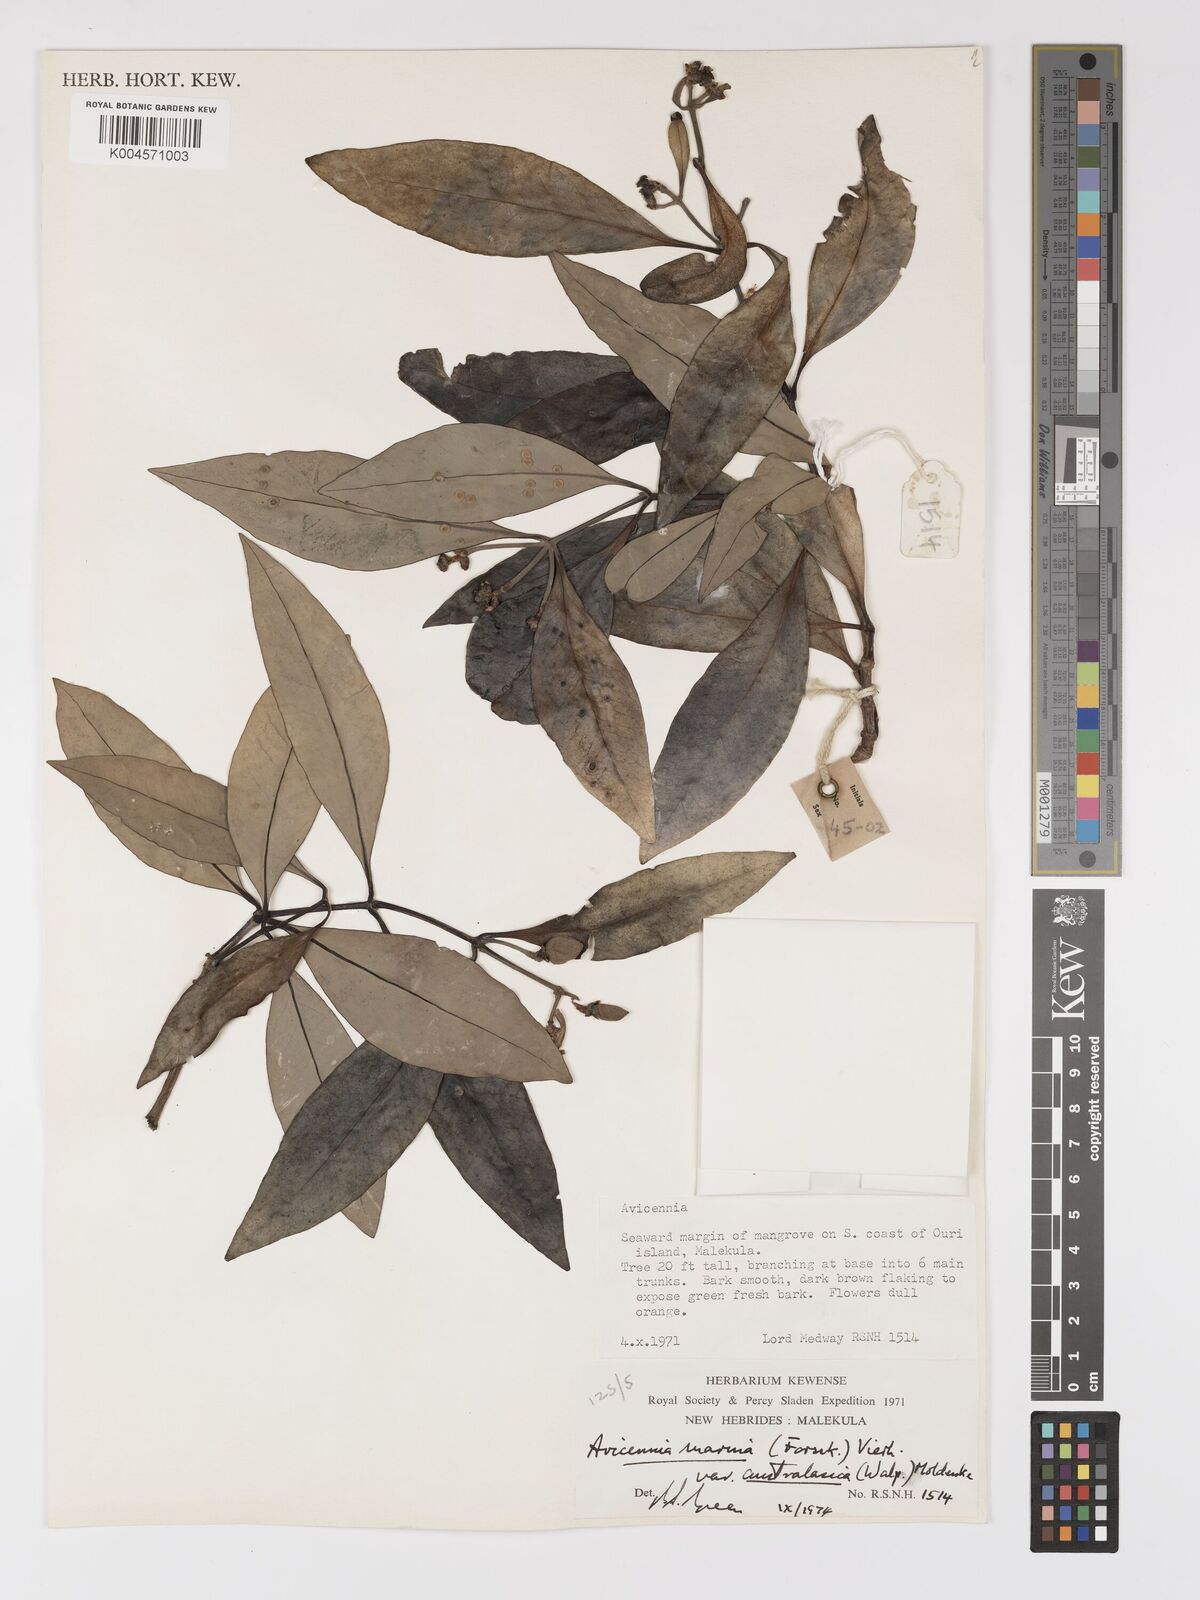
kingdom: Plantae
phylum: Tracheophyta
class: Magnoliopsida
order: Lamiales
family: Acanthaceae
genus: Avicennia
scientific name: Avicennia marina
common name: Gray mangrove
